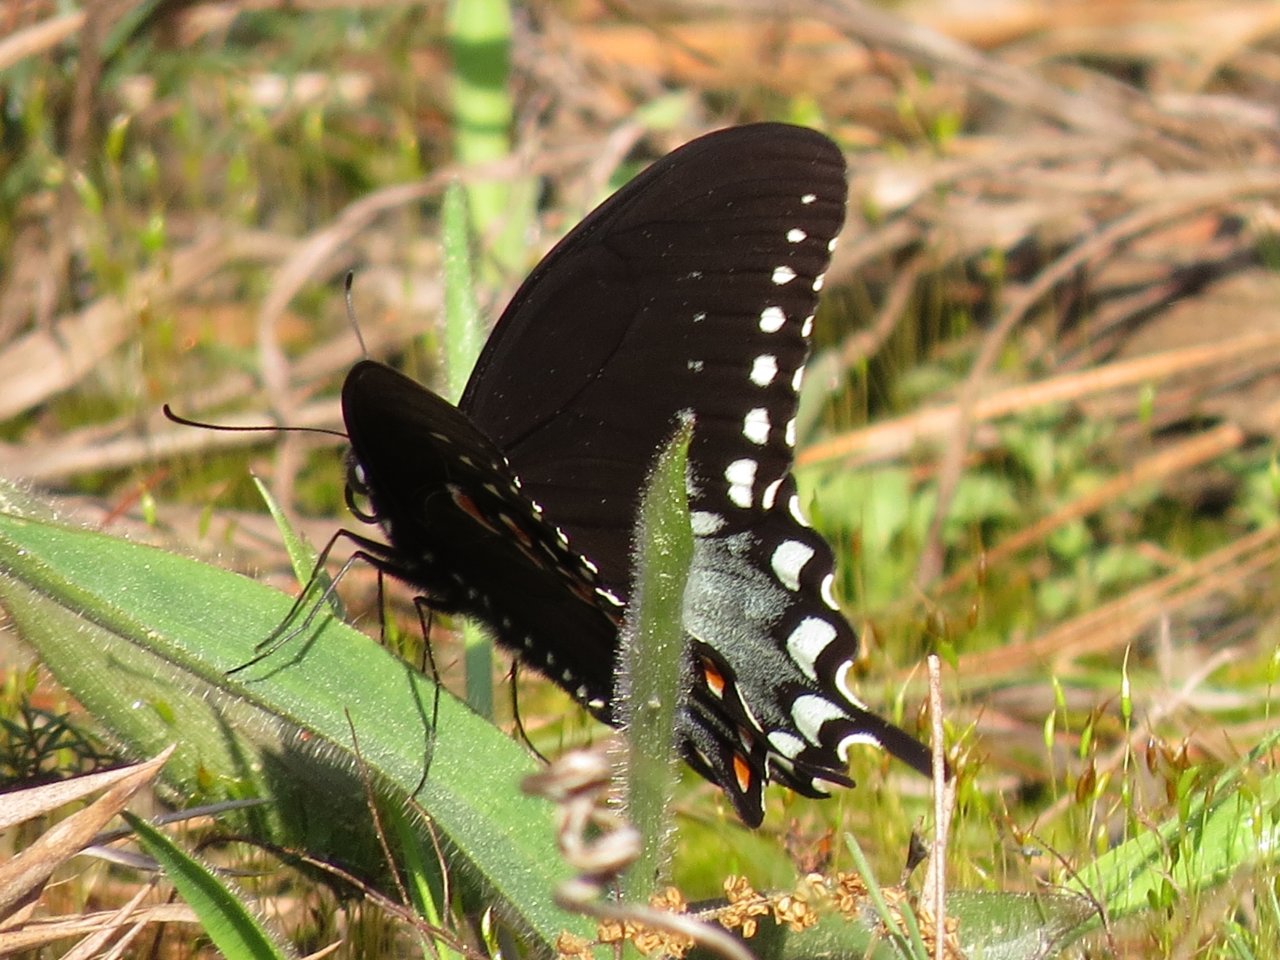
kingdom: Animalia
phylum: Arthropoda
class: Insecta
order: Lepidoptera
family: Papilionidae
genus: Pterourus
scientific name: Pterourus troilus
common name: Spicebush Swallowtail
